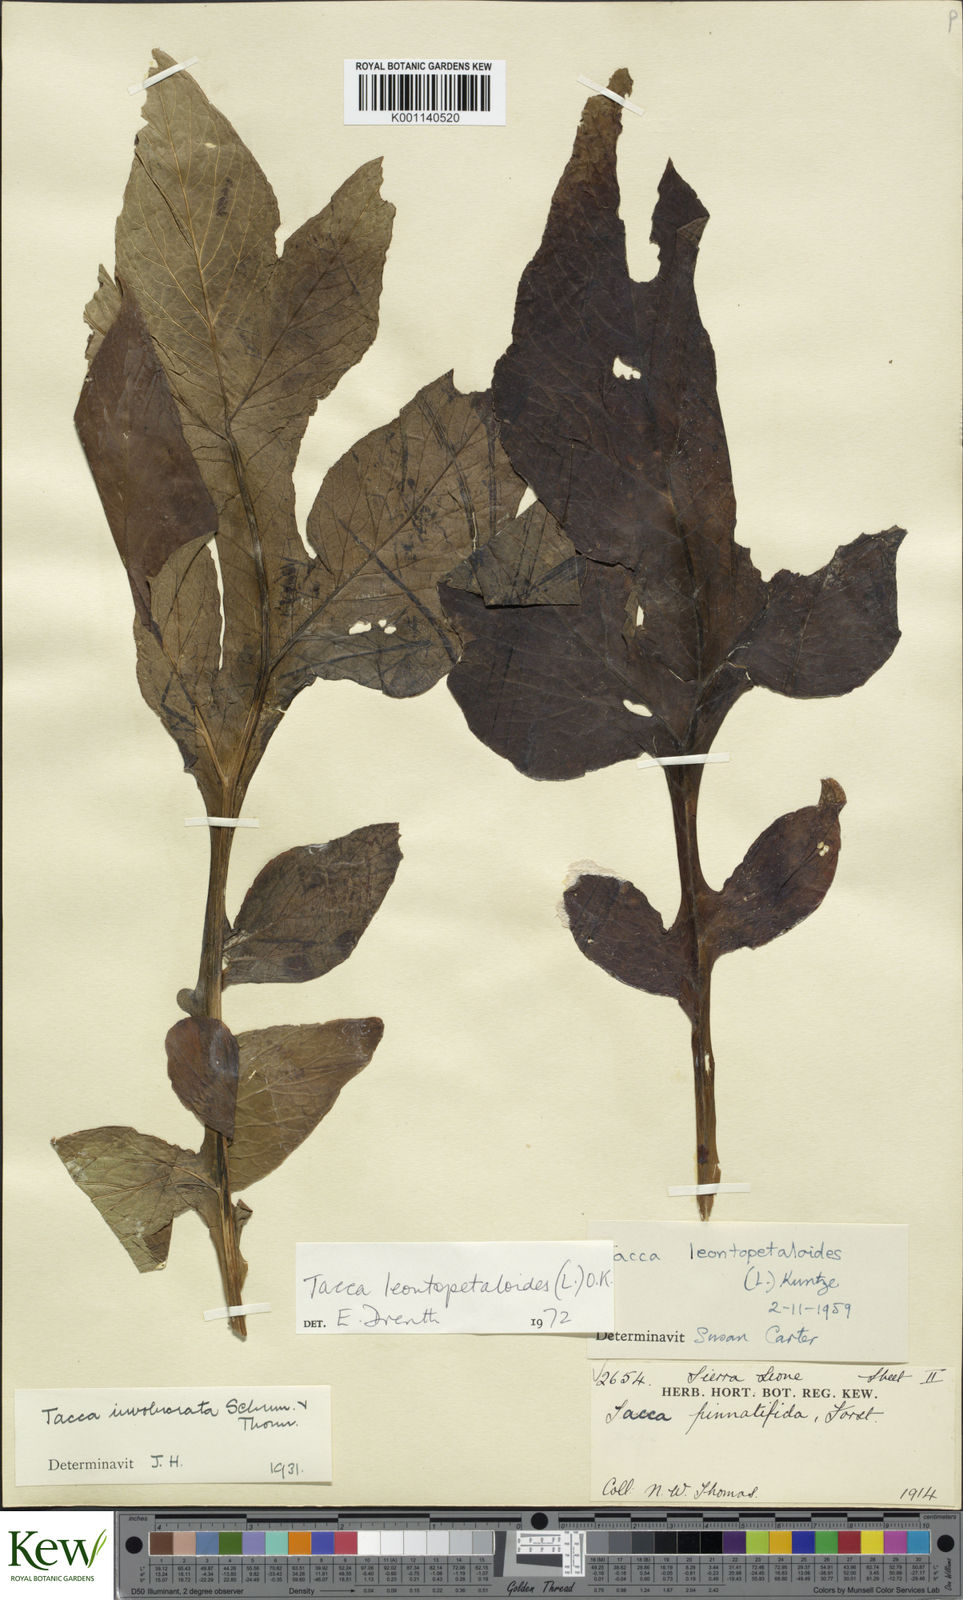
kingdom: Plantae
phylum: Tracheophyta
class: Liliopsida
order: Dioscoreales
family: Dioscoreaceae
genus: Tacca
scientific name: Tacca leontopetaloides
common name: Arrowroot
